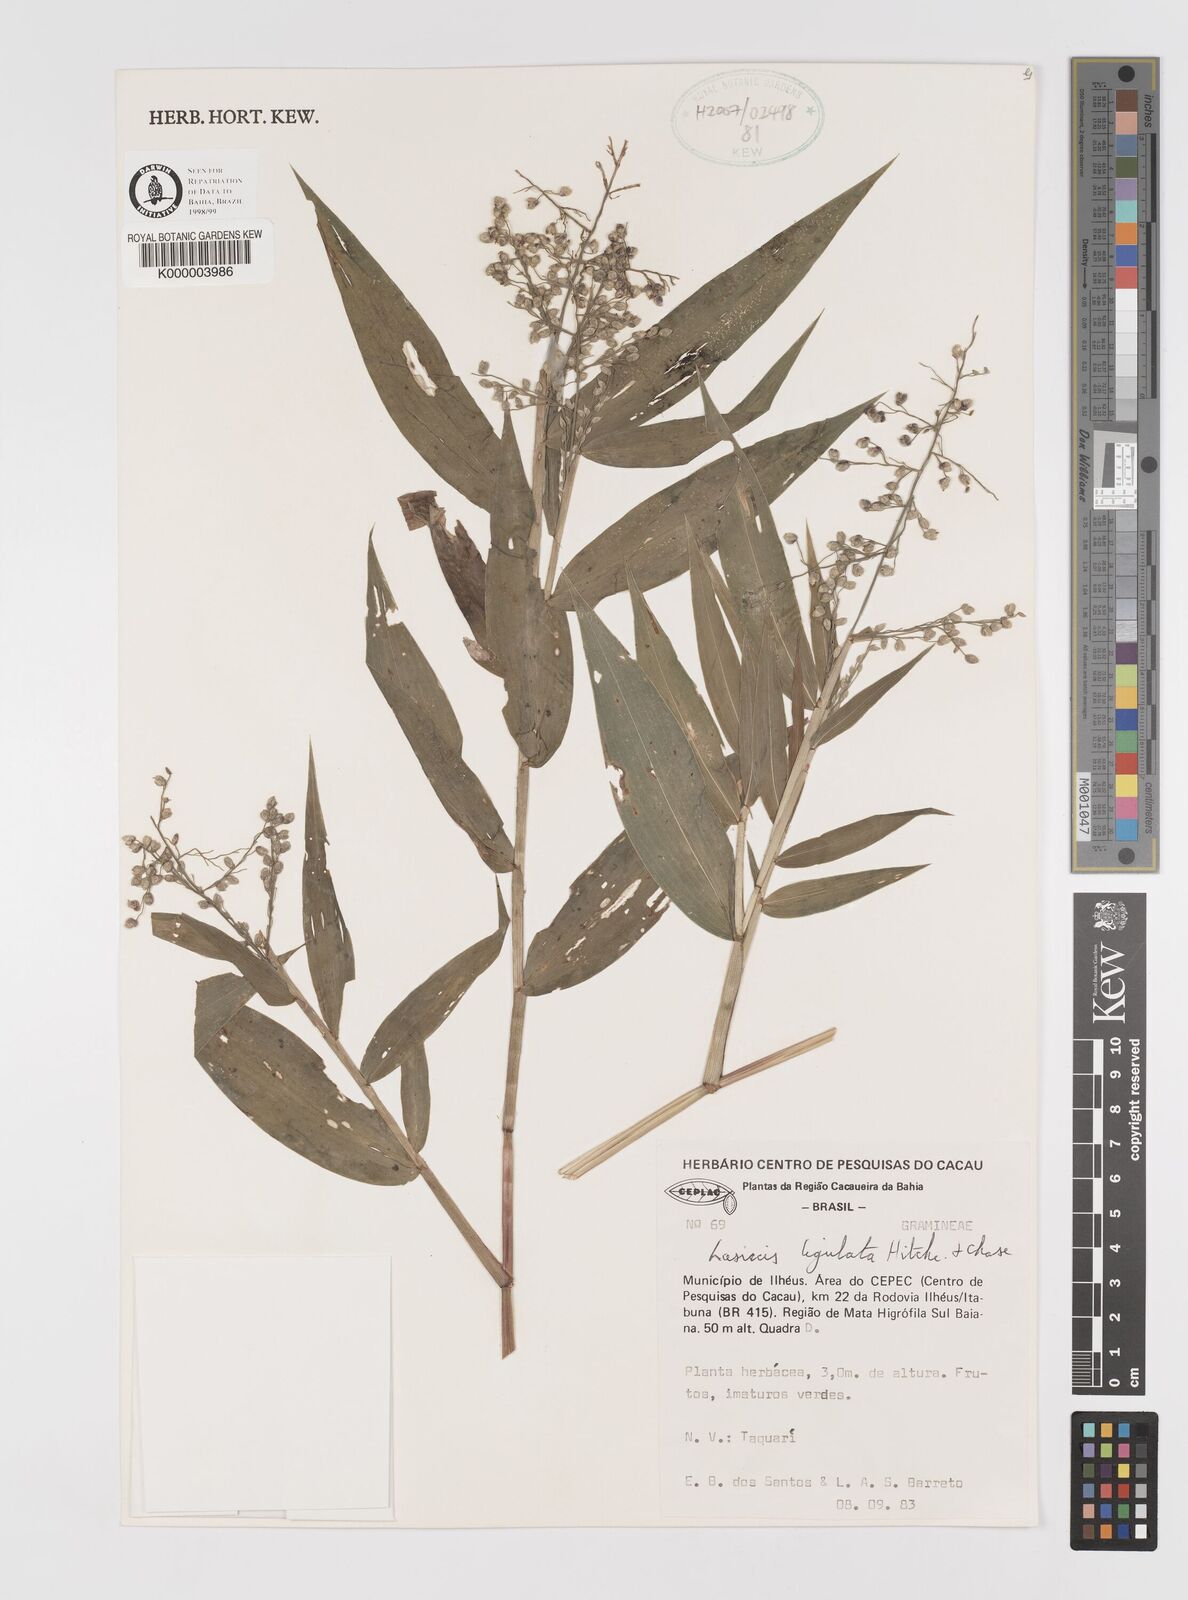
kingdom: Plantae
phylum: Tracheophyta
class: Liliopsida
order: Poales
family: Poaceae
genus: Lasiacis
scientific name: Lasiacis ligulata
